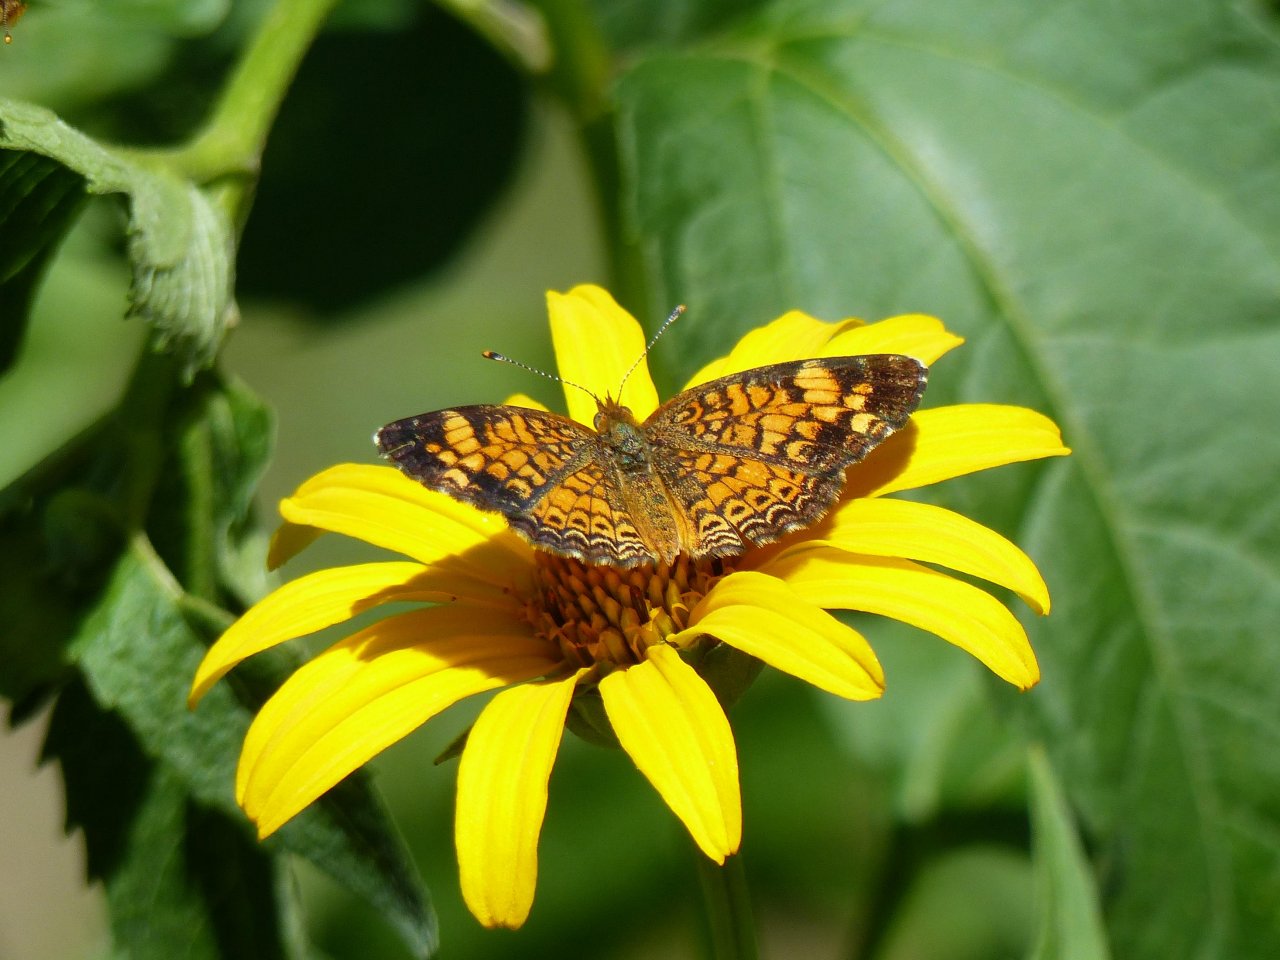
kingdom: Animalia
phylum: Arthropoda
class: Insecta
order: Lepidoptera
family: Nymphalidae
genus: Phyciodes
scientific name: Phyciodes tharos
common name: Pearl Crescent
